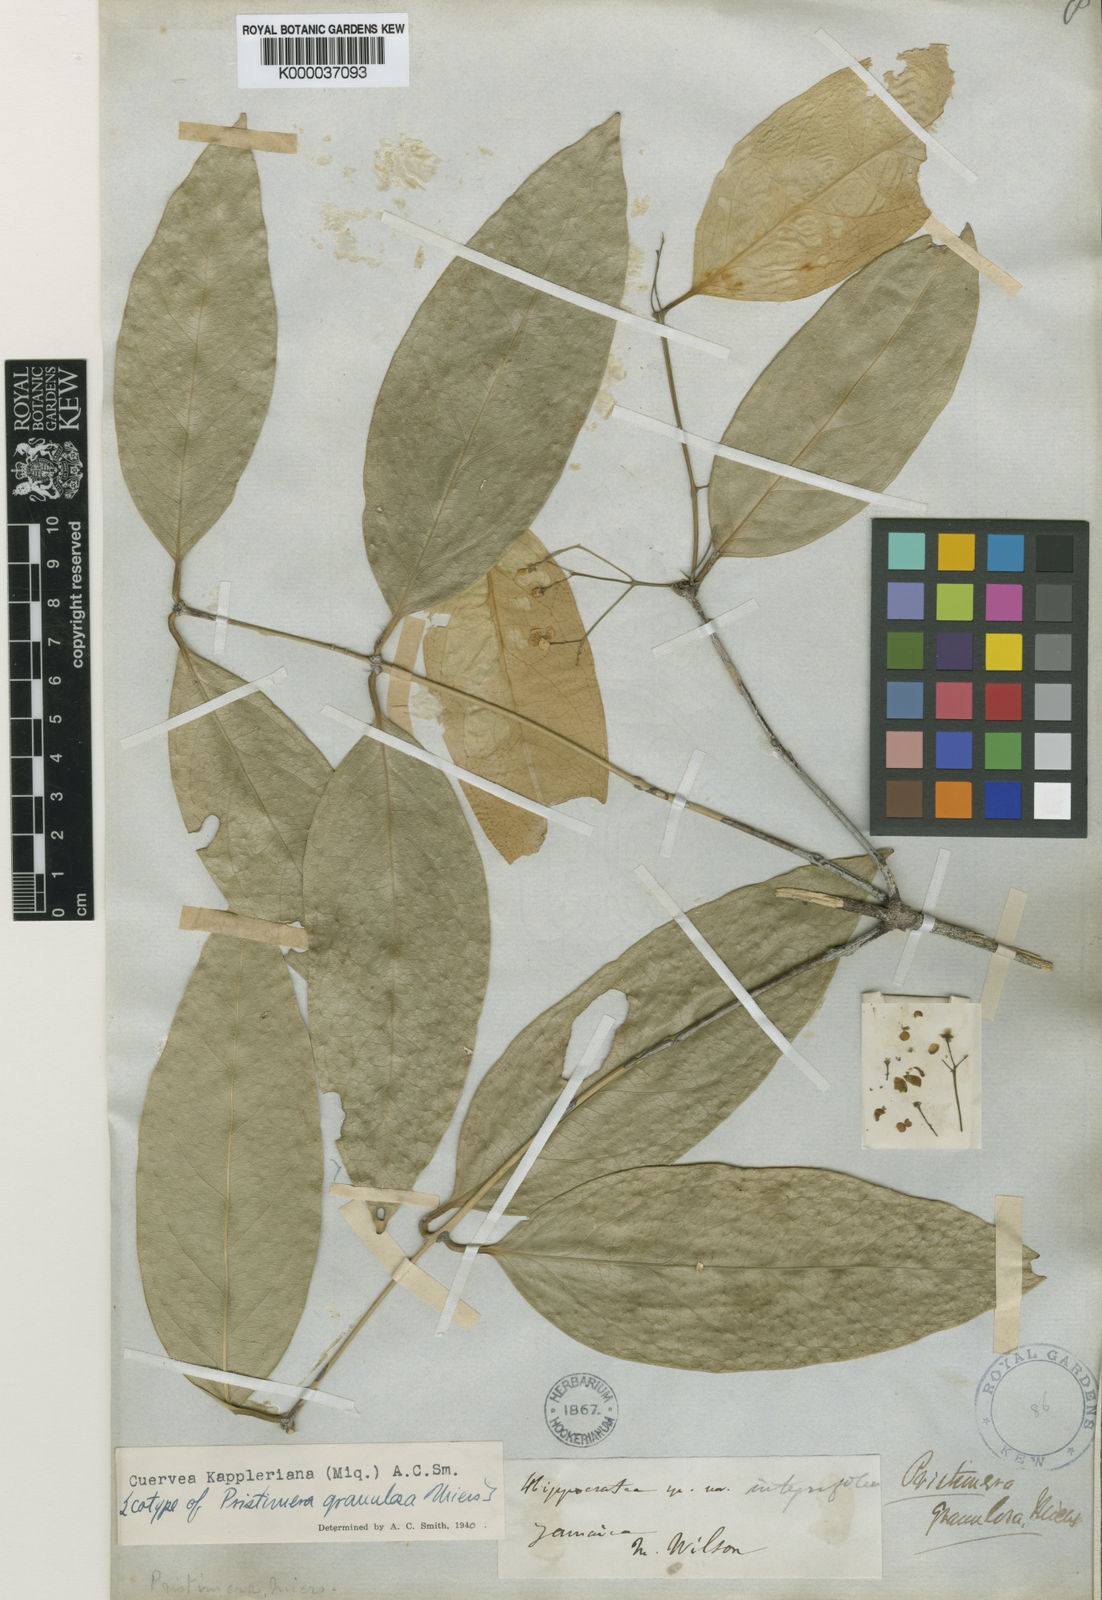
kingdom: Plantae
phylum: Tracheophyta
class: Magnoliopsida
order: Celastrales
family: Celastraceae
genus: Cuervea
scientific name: Cuervea kappleriana
